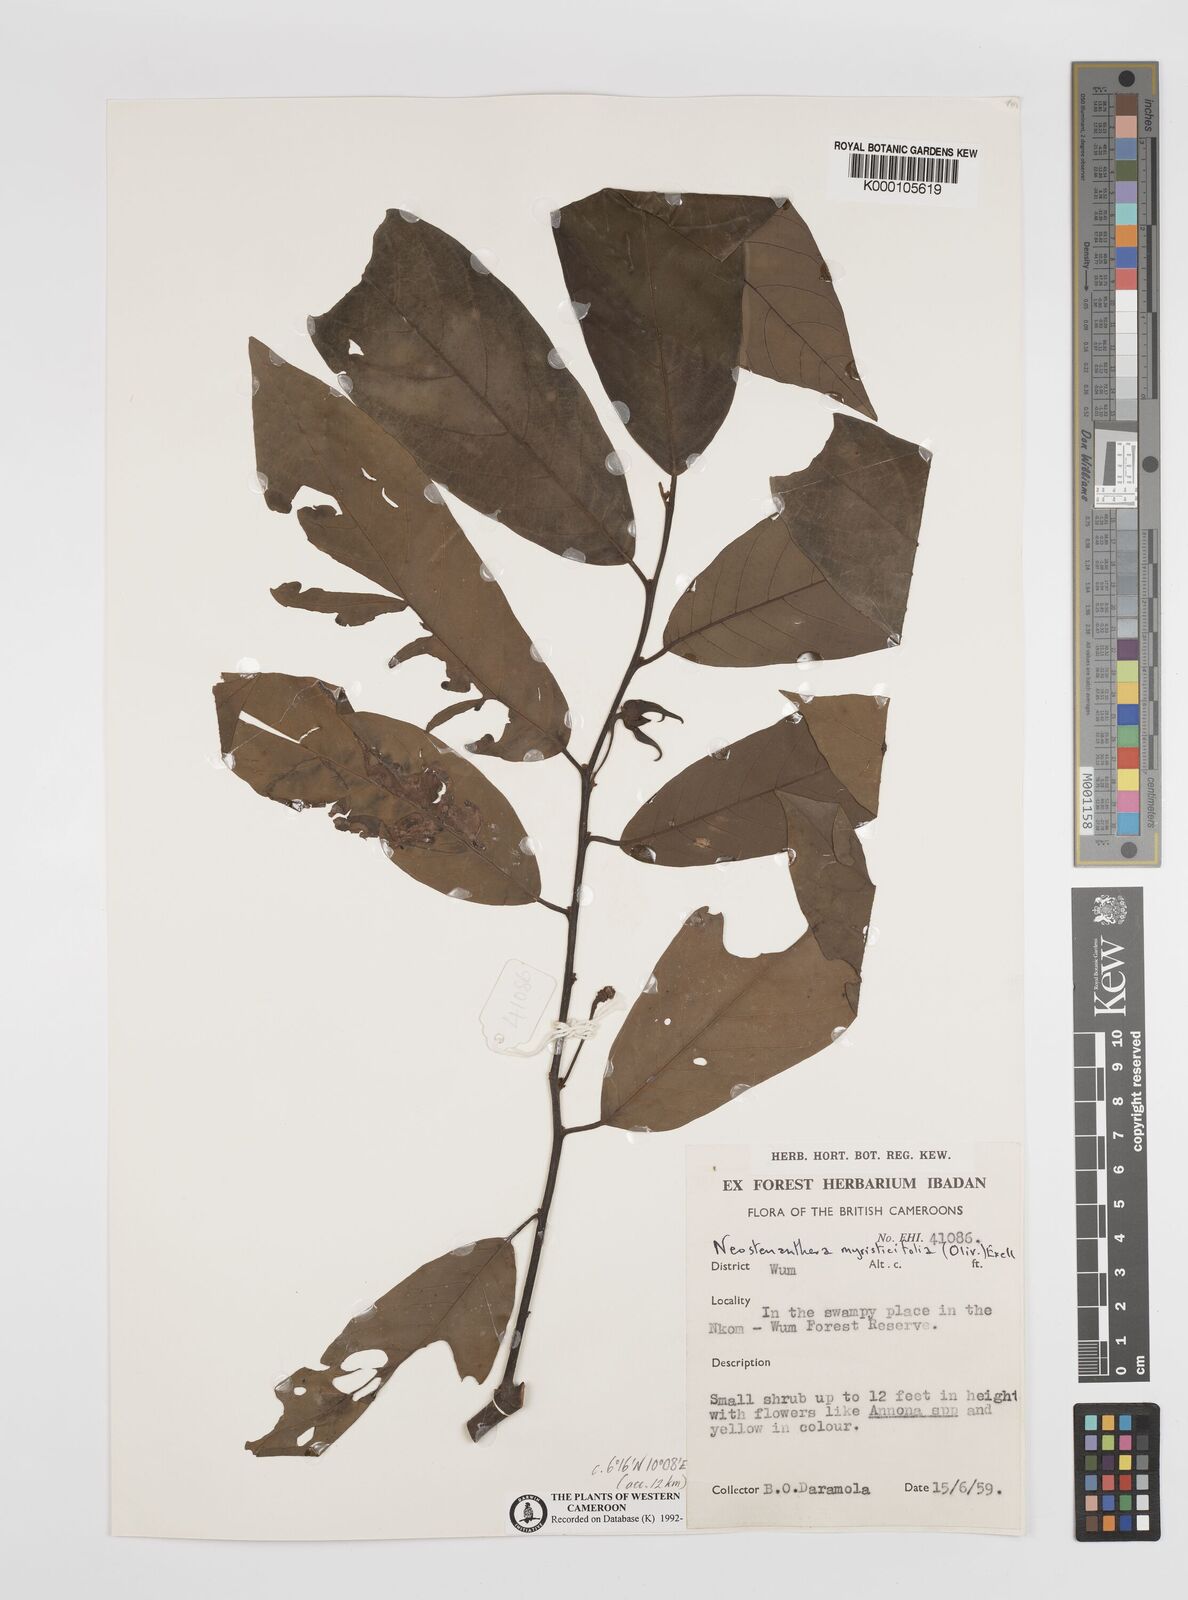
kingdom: Plantae
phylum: Tracheophyta
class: Magnoliopsida
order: Magnoliales
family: Annonaceae
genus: Neostenanthera
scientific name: Neostenanthera myristicifolia
